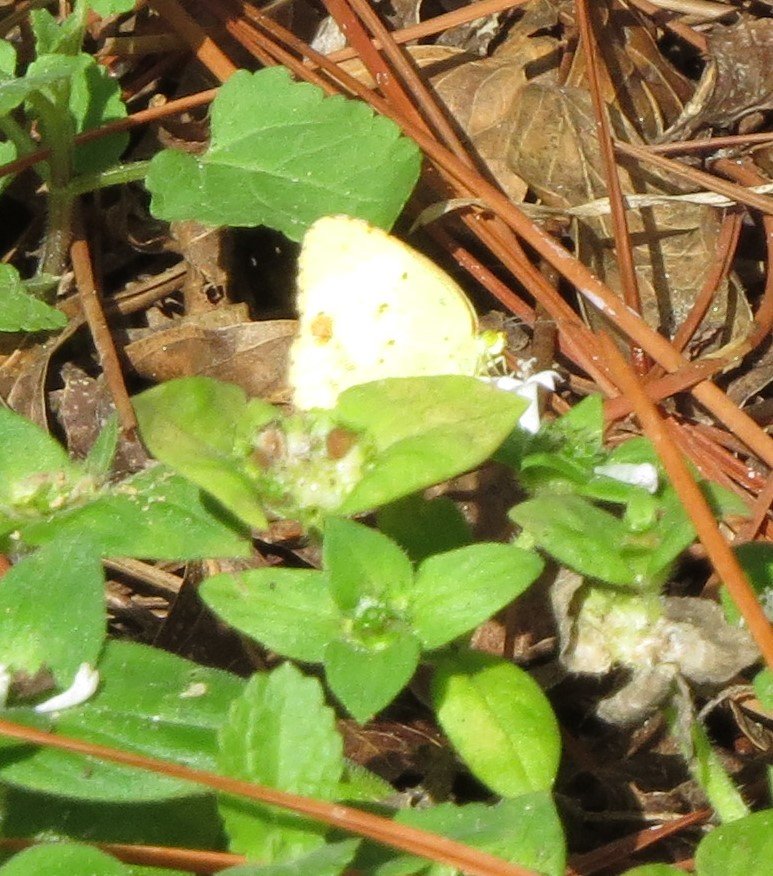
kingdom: Animalia
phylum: Arthropoda
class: Insecta
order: Lepidoptera
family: Pieridae
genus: Pyrisitia
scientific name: Pyrisitia lisa
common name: Little Yellow
